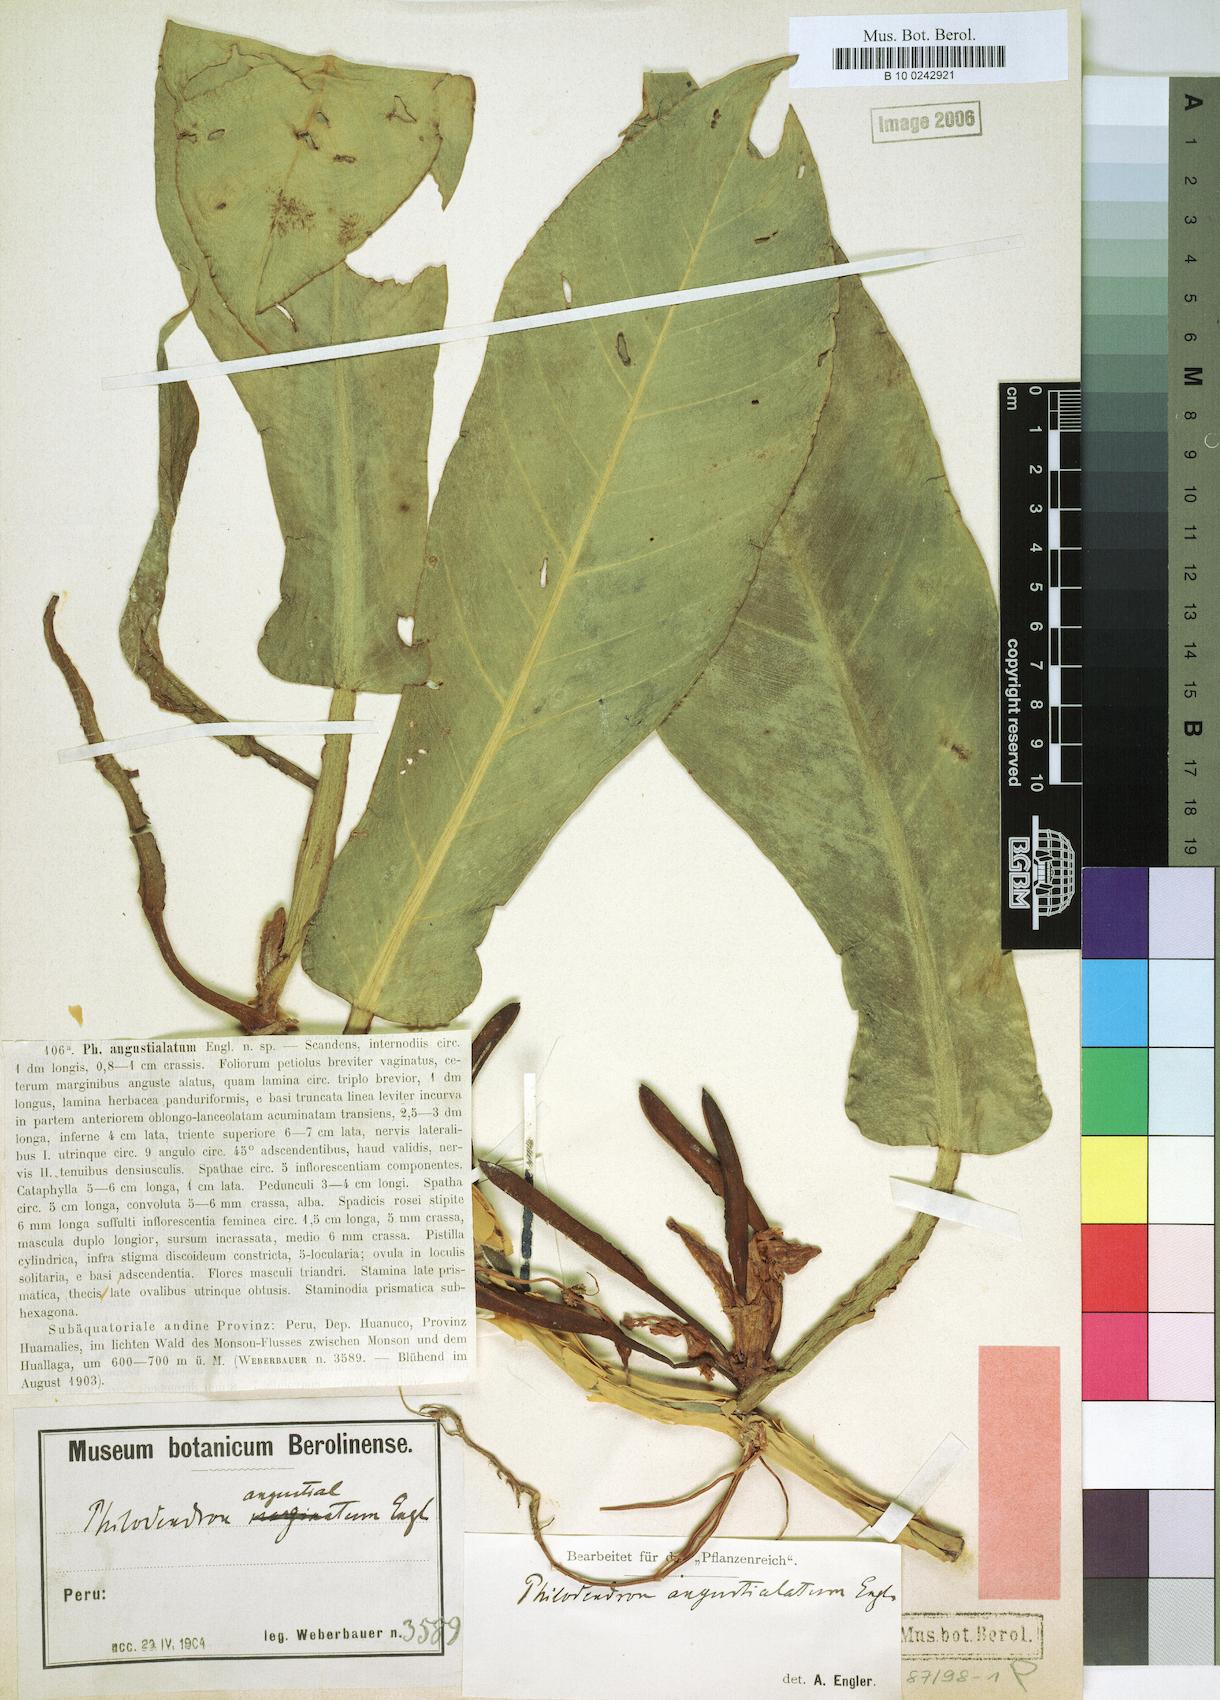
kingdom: Plantae
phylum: Tracheophyta
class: Liliopsida
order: Alismatales
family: Araceae
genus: Philodendron
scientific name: Philodendron angustialatum
